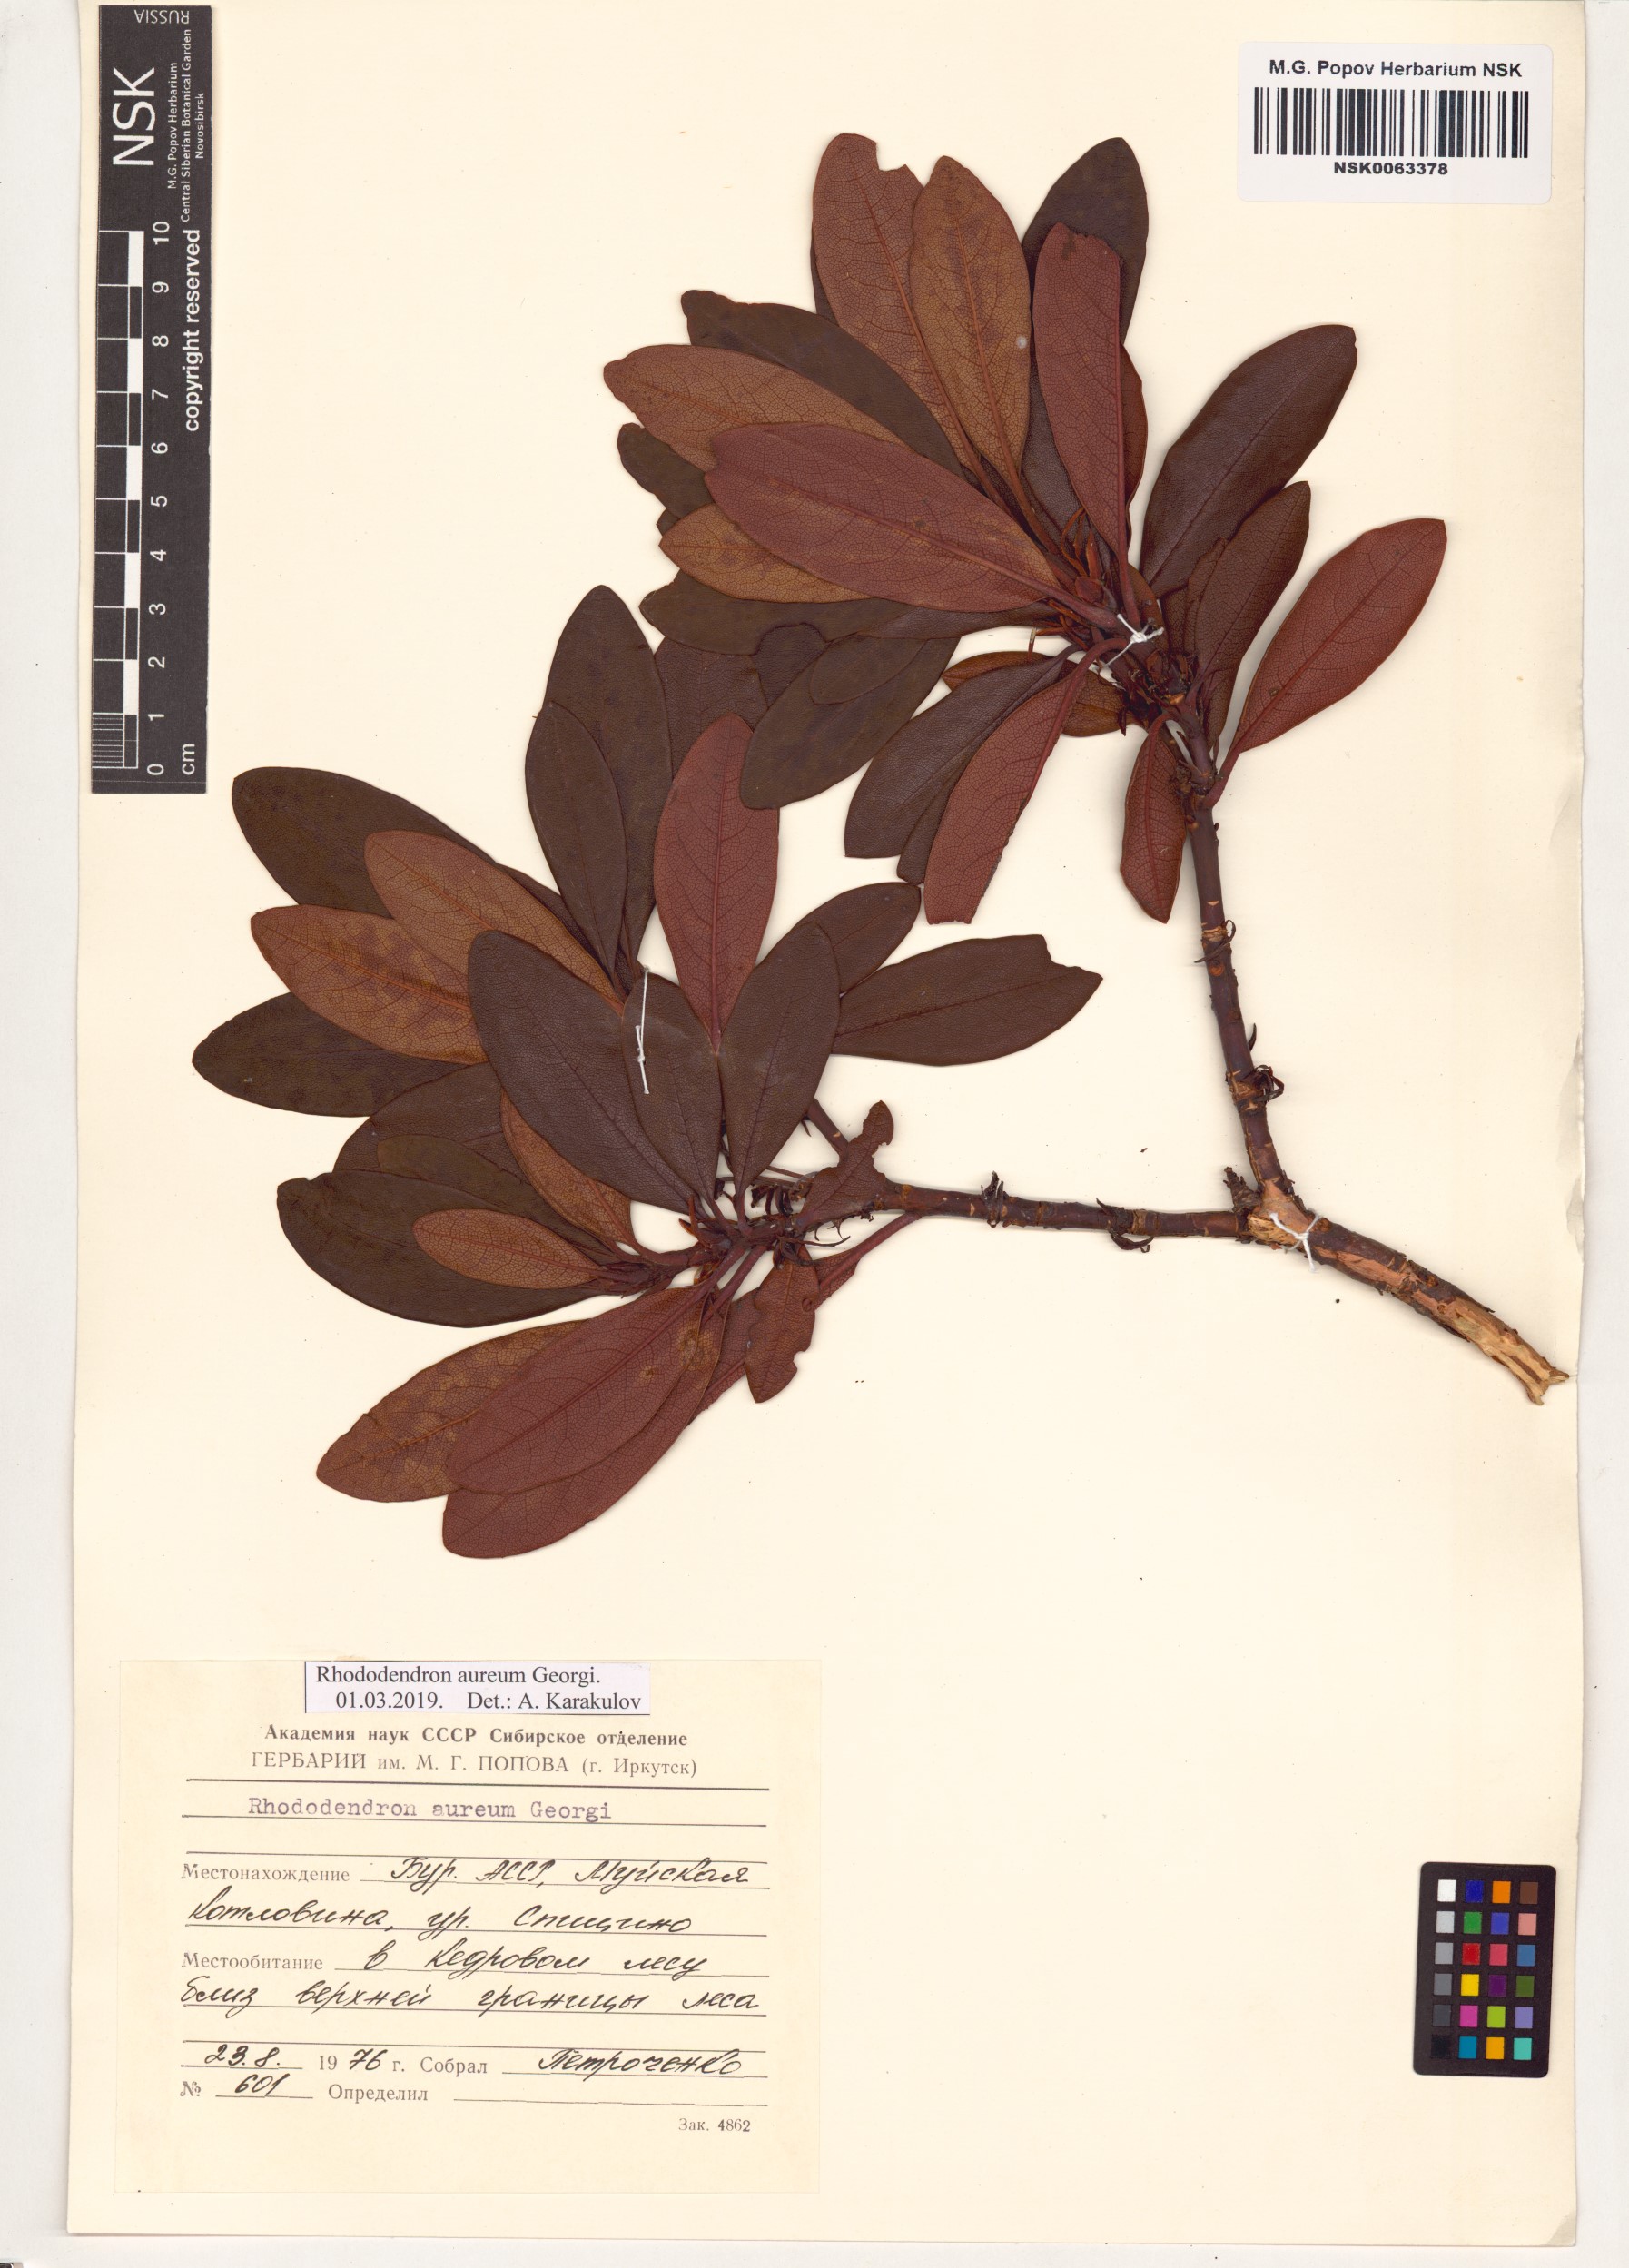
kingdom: Plantae
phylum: Tracheophyta
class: Magnoliopsida
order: Ericales
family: Ericaceae
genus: Rhododendron
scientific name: Rhododendron aureum
